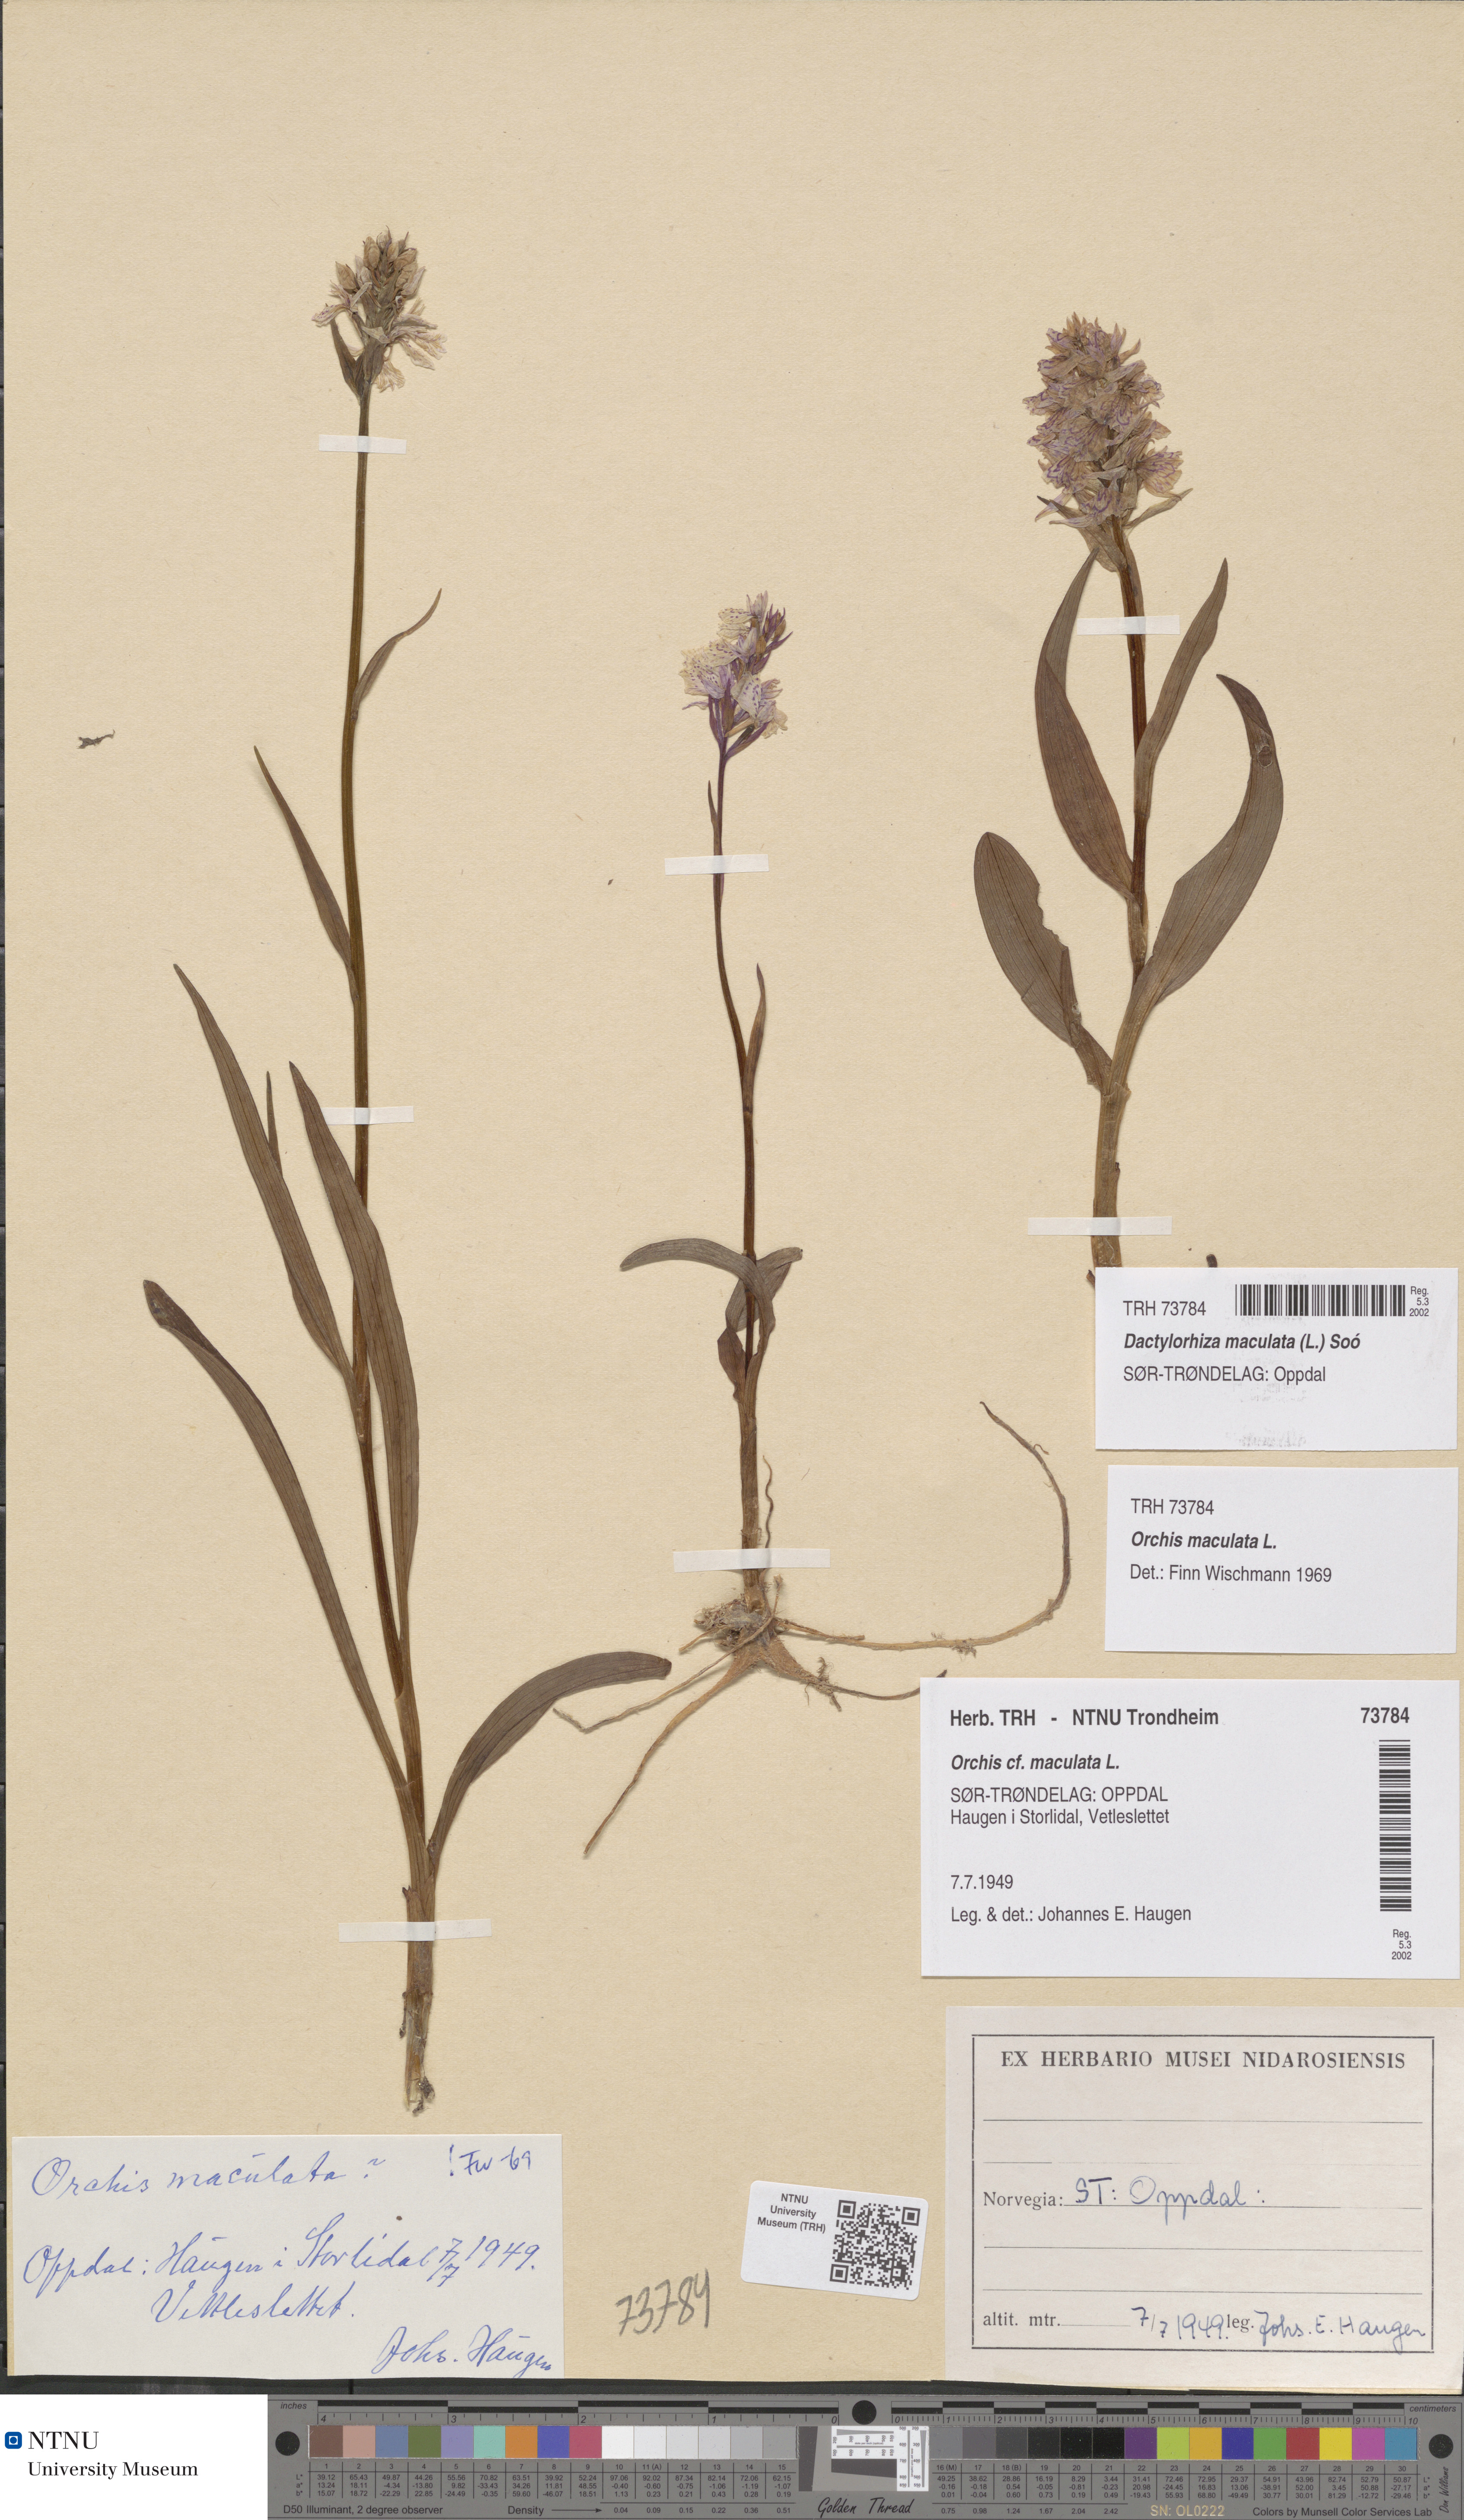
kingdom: Plantae
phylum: Tracheophyta
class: Liliopsida
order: Asparagales
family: Orchidaceae
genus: Dactylorhiza
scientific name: Dactylorhiza maculata
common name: Heath spotted-orchid
